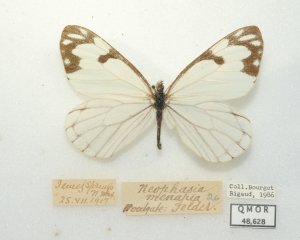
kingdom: Animalia
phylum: Arthropoda
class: Insecta
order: Lepidoptera
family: Pieridae
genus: Neophasia
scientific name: Neophasia menapia
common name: Pine White
